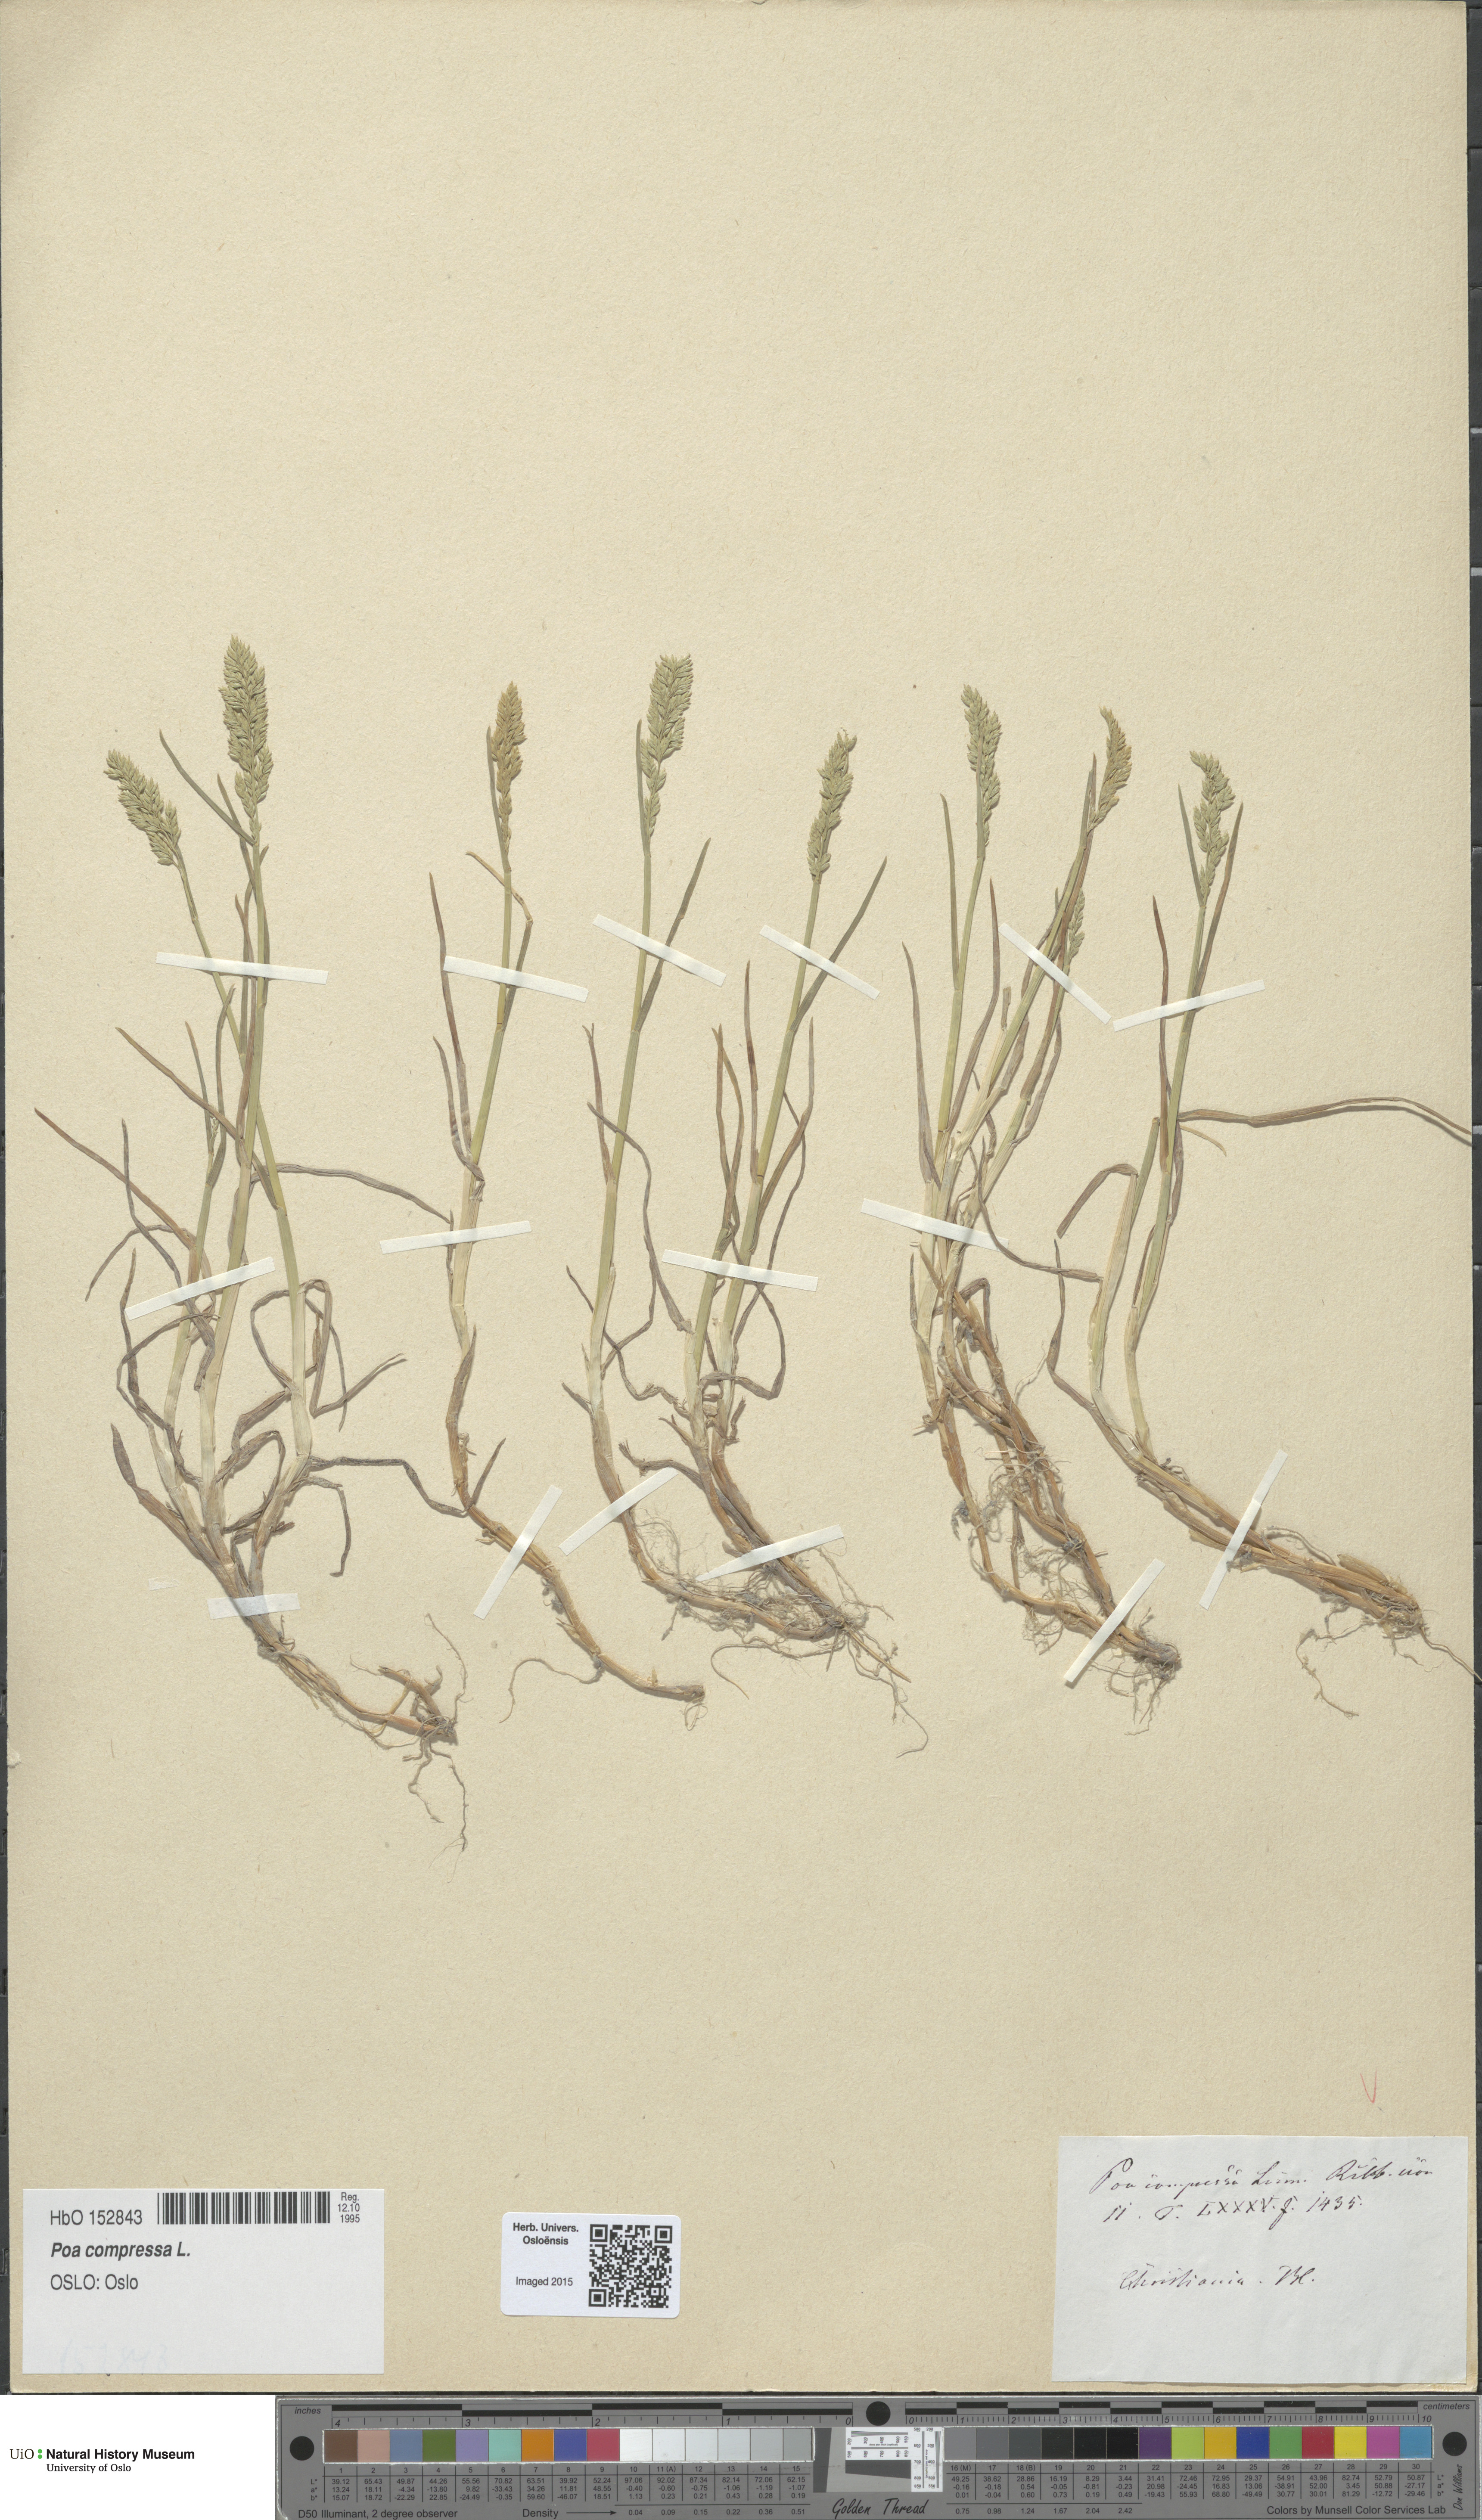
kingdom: Plantae
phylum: Tracheophyta
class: Liliopsida
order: Poales
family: Poaceae
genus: Poa
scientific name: Poa compressa
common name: Canada bluegrass
